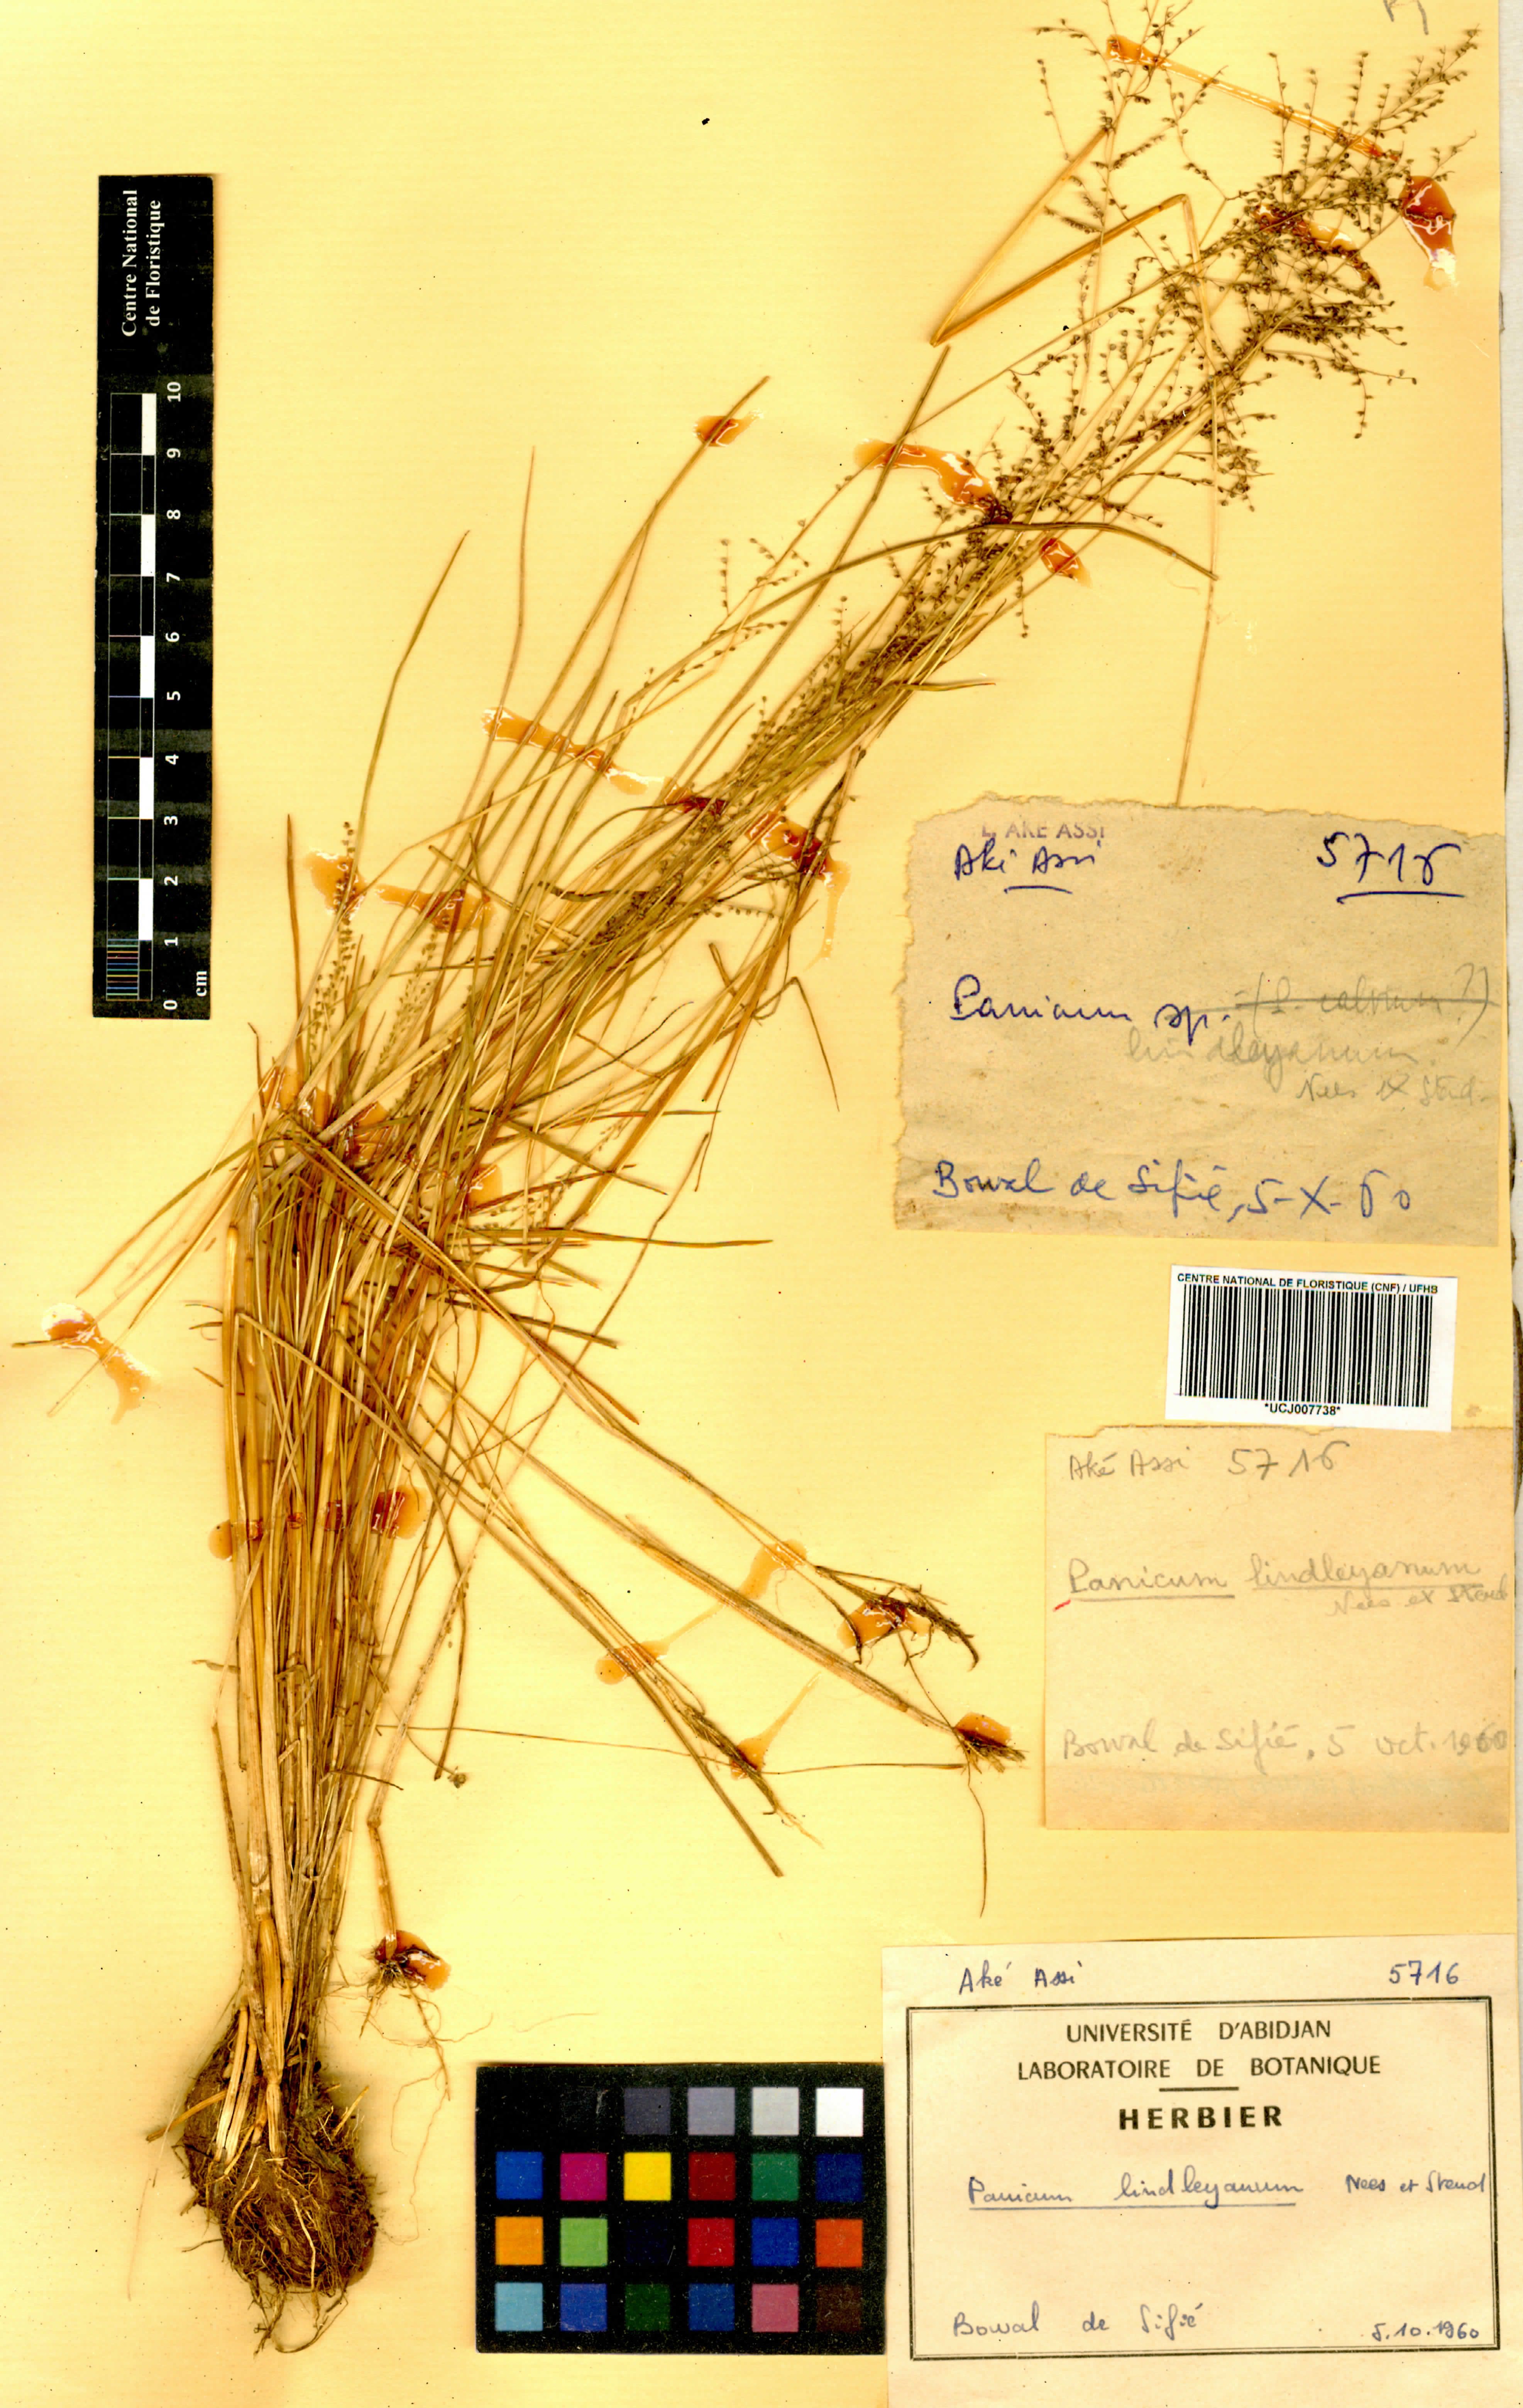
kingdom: Plantae
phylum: Tracheophyta
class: Liliopsida
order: Poales
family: Poaceae
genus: Trichanthecium
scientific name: Trichanthecium tenellum
